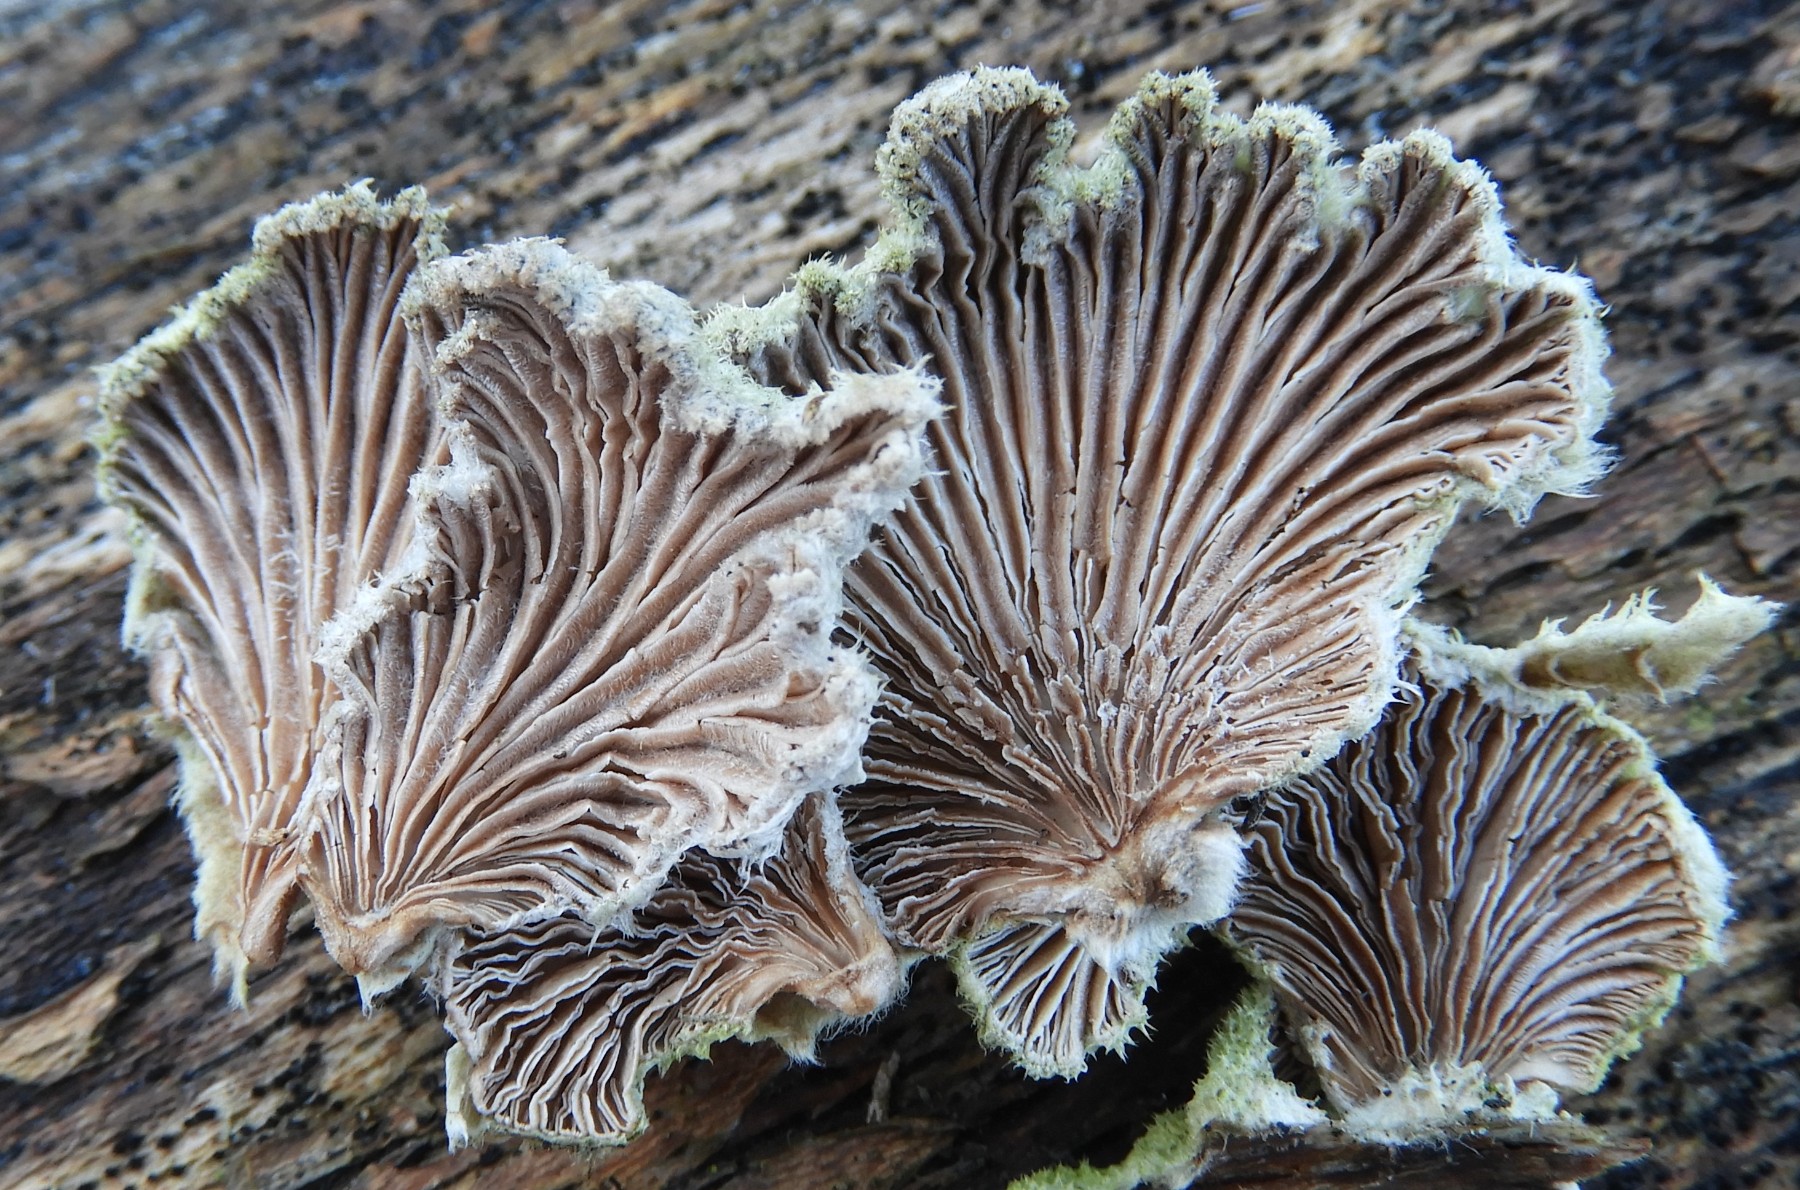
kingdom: Fungi
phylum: Basidiomycota
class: Agaricomycetes
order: Agaricales
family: Schizophyllaceae
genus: Schizophyllum
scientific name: Schizophyllum commune
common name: kløvblad
